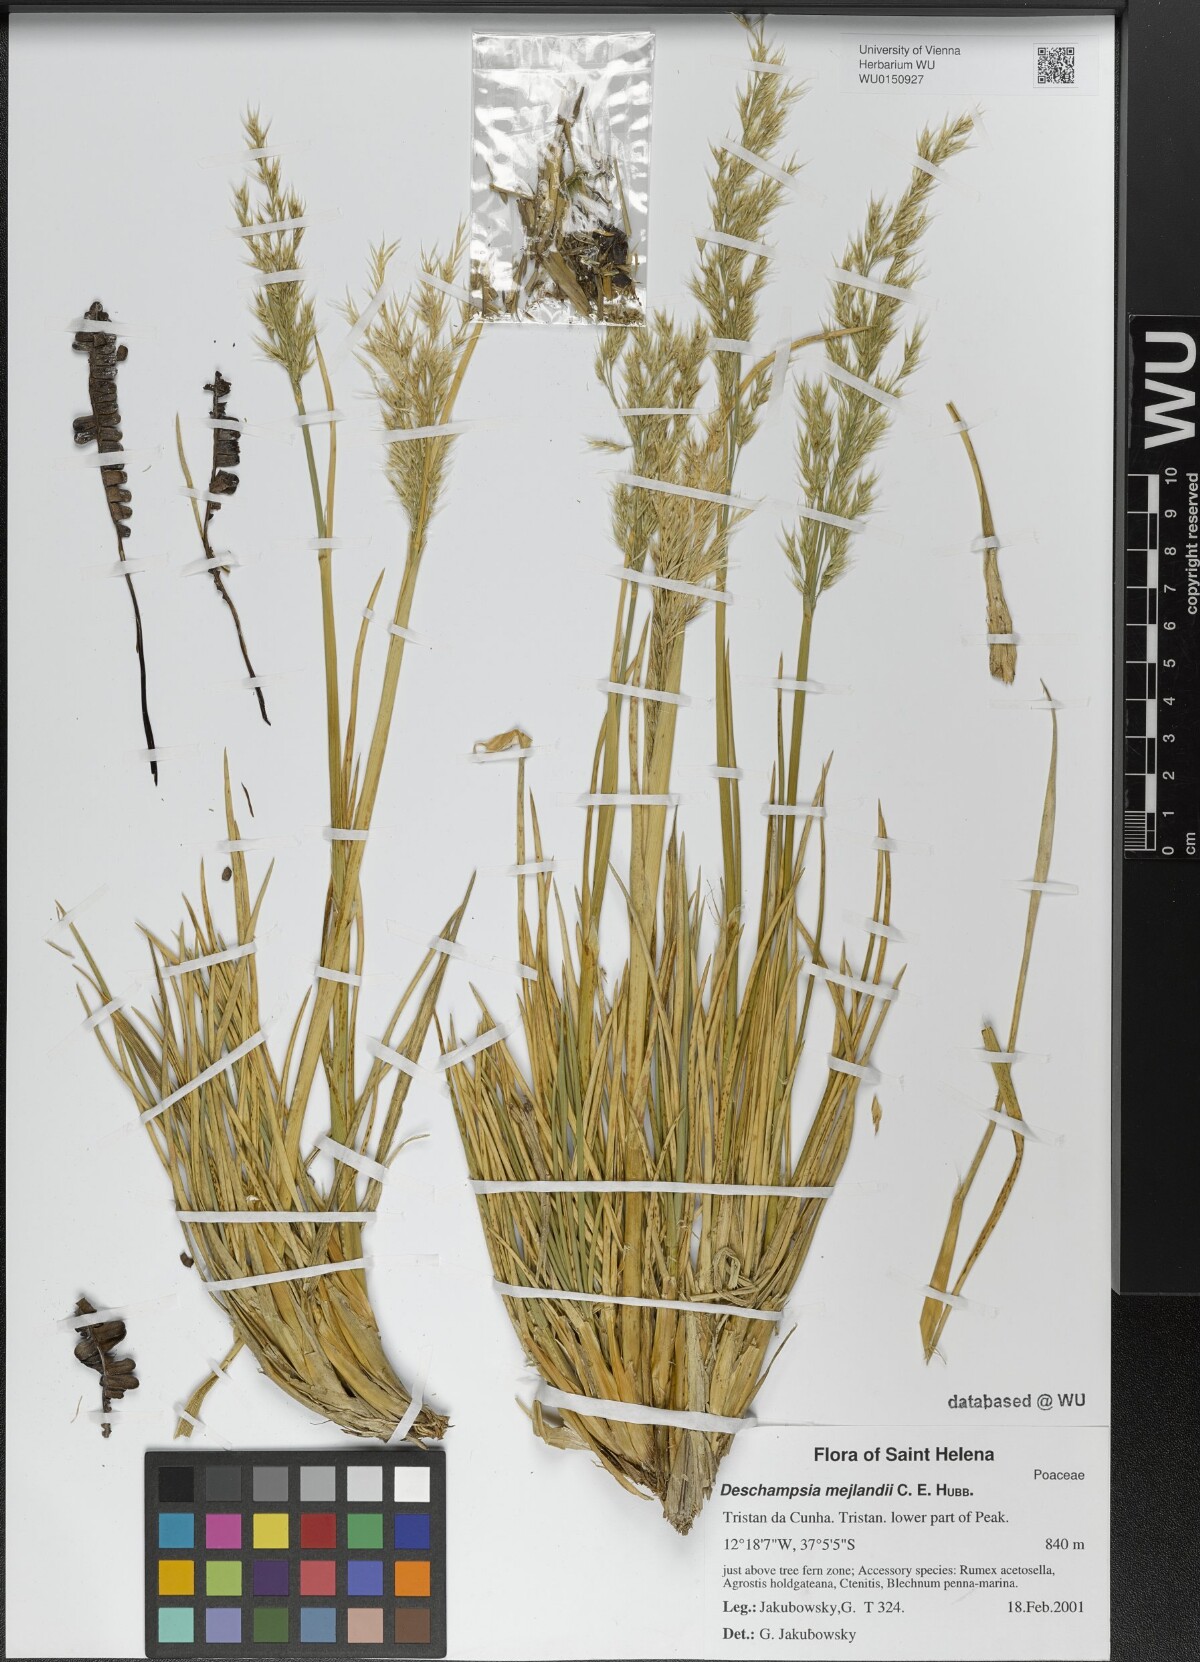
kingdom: Plantae
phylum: Tracheophyta
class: Liliopsida
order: Poales
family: Poaceae
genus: Deschampsia
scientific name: Deschampsia mejlandii
